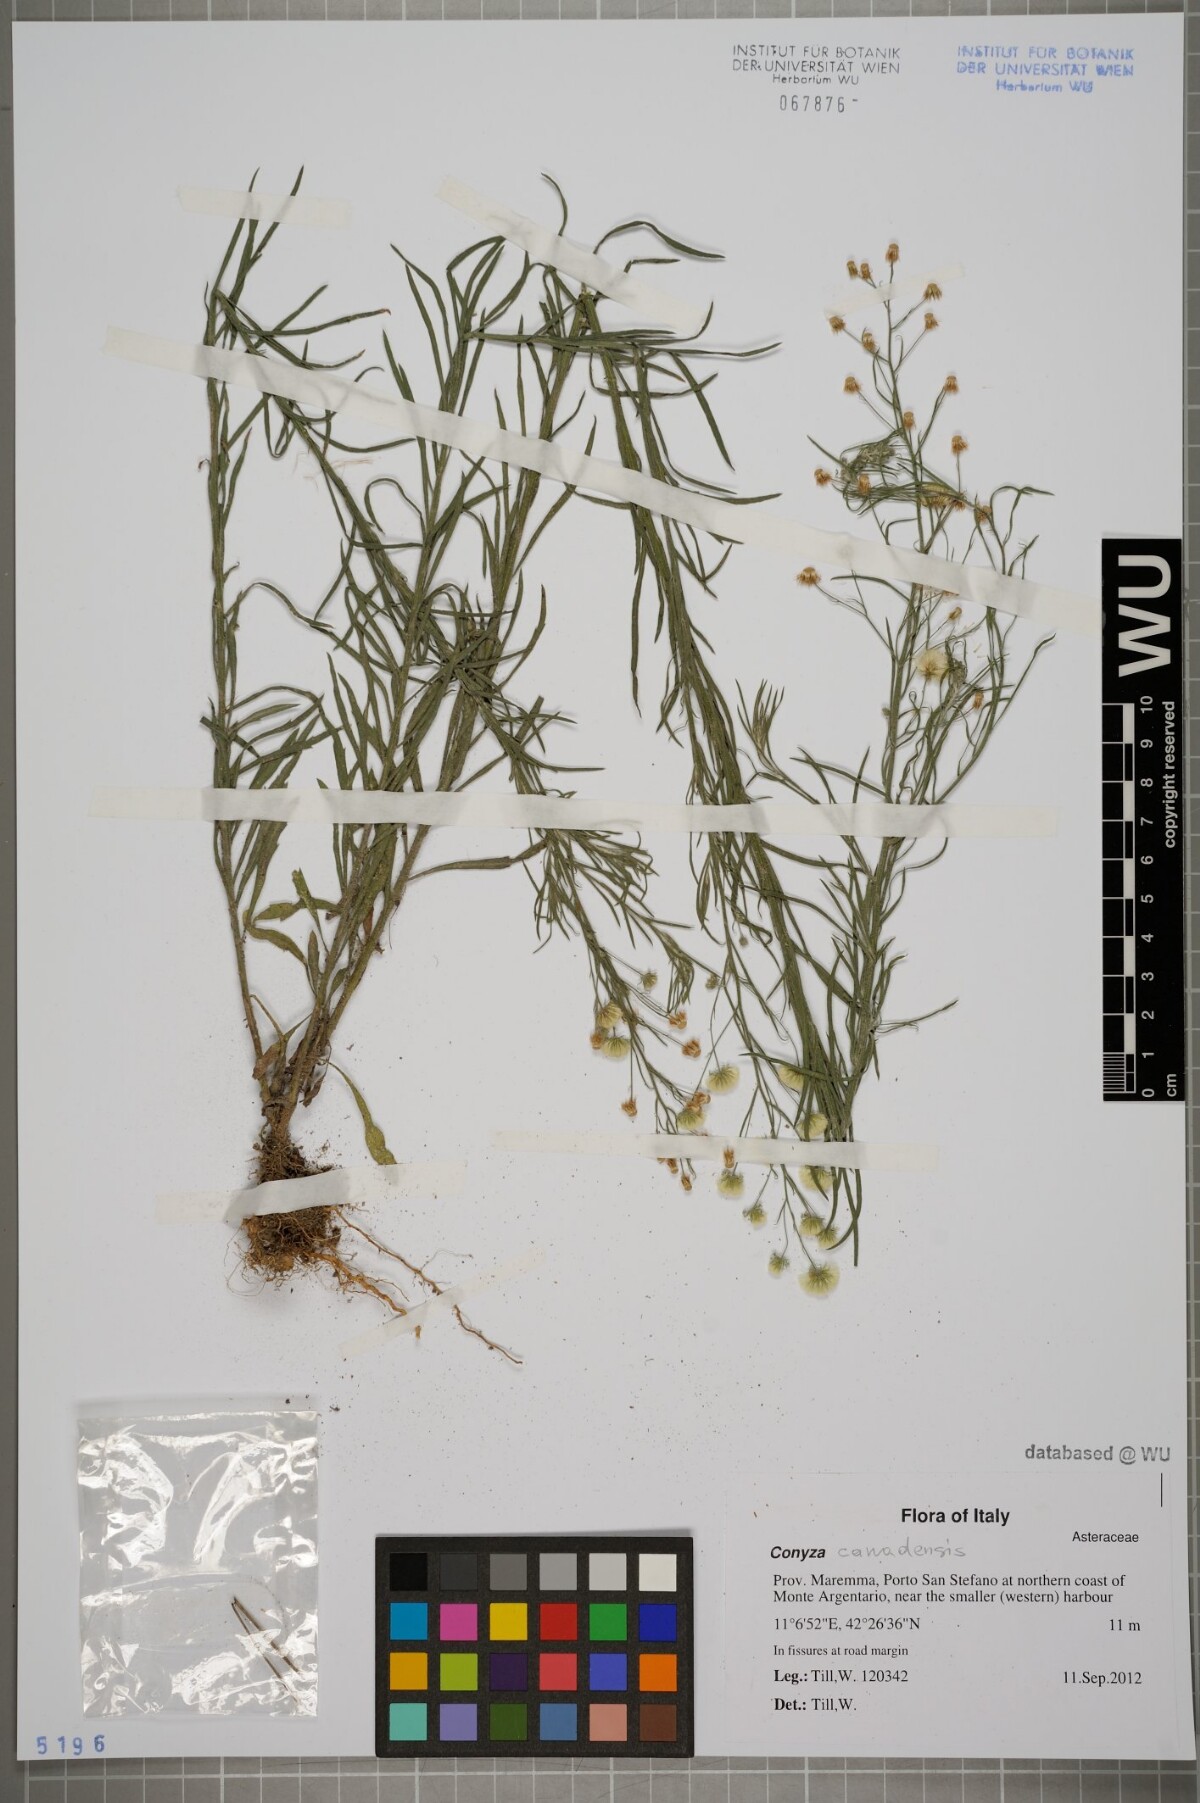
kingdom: Plantae
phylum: Tracheophyta
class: Magnoliopsida
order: Asterales
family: Asteraceae
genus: Erigeron
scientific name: Erigeron canadensis
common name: Canadian fleabane
